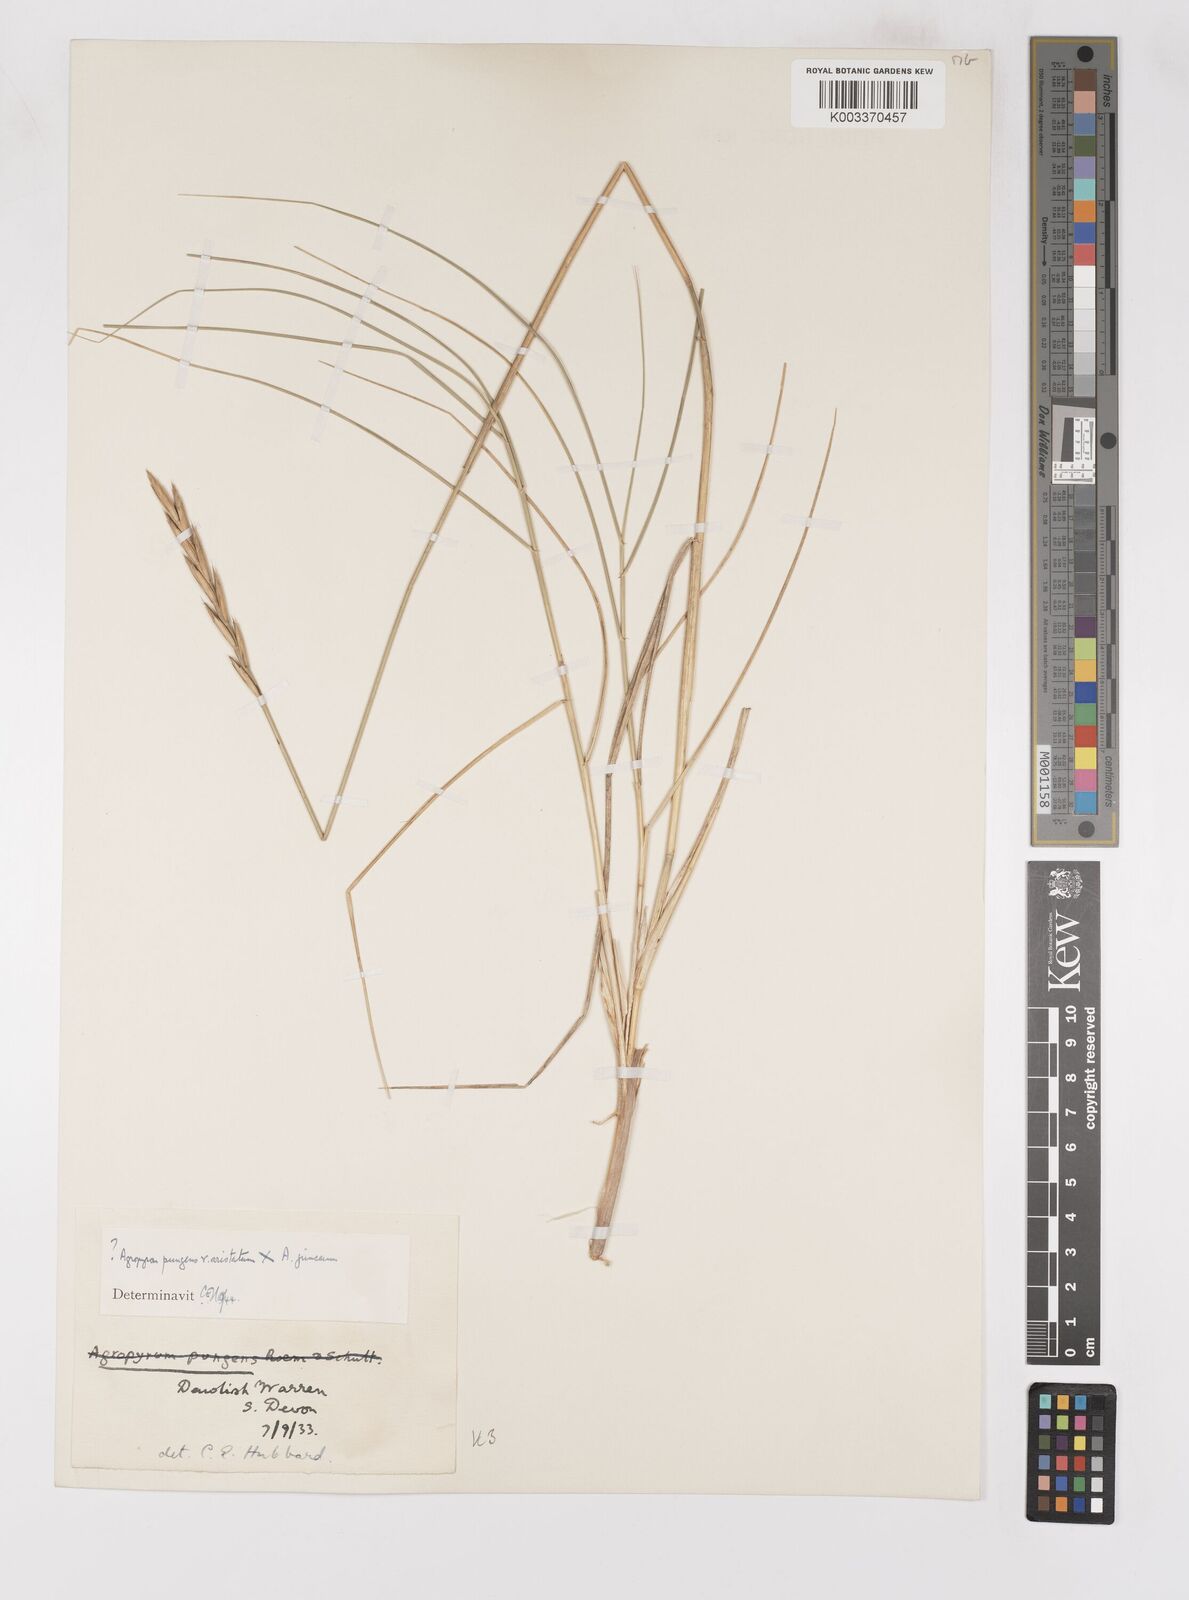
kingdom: Plantae
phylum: Tracheophyta
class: Liliopsida
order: Poales
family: Poaceae
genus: Thinoelymus
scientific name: Thinoelymus obtusiusculus
